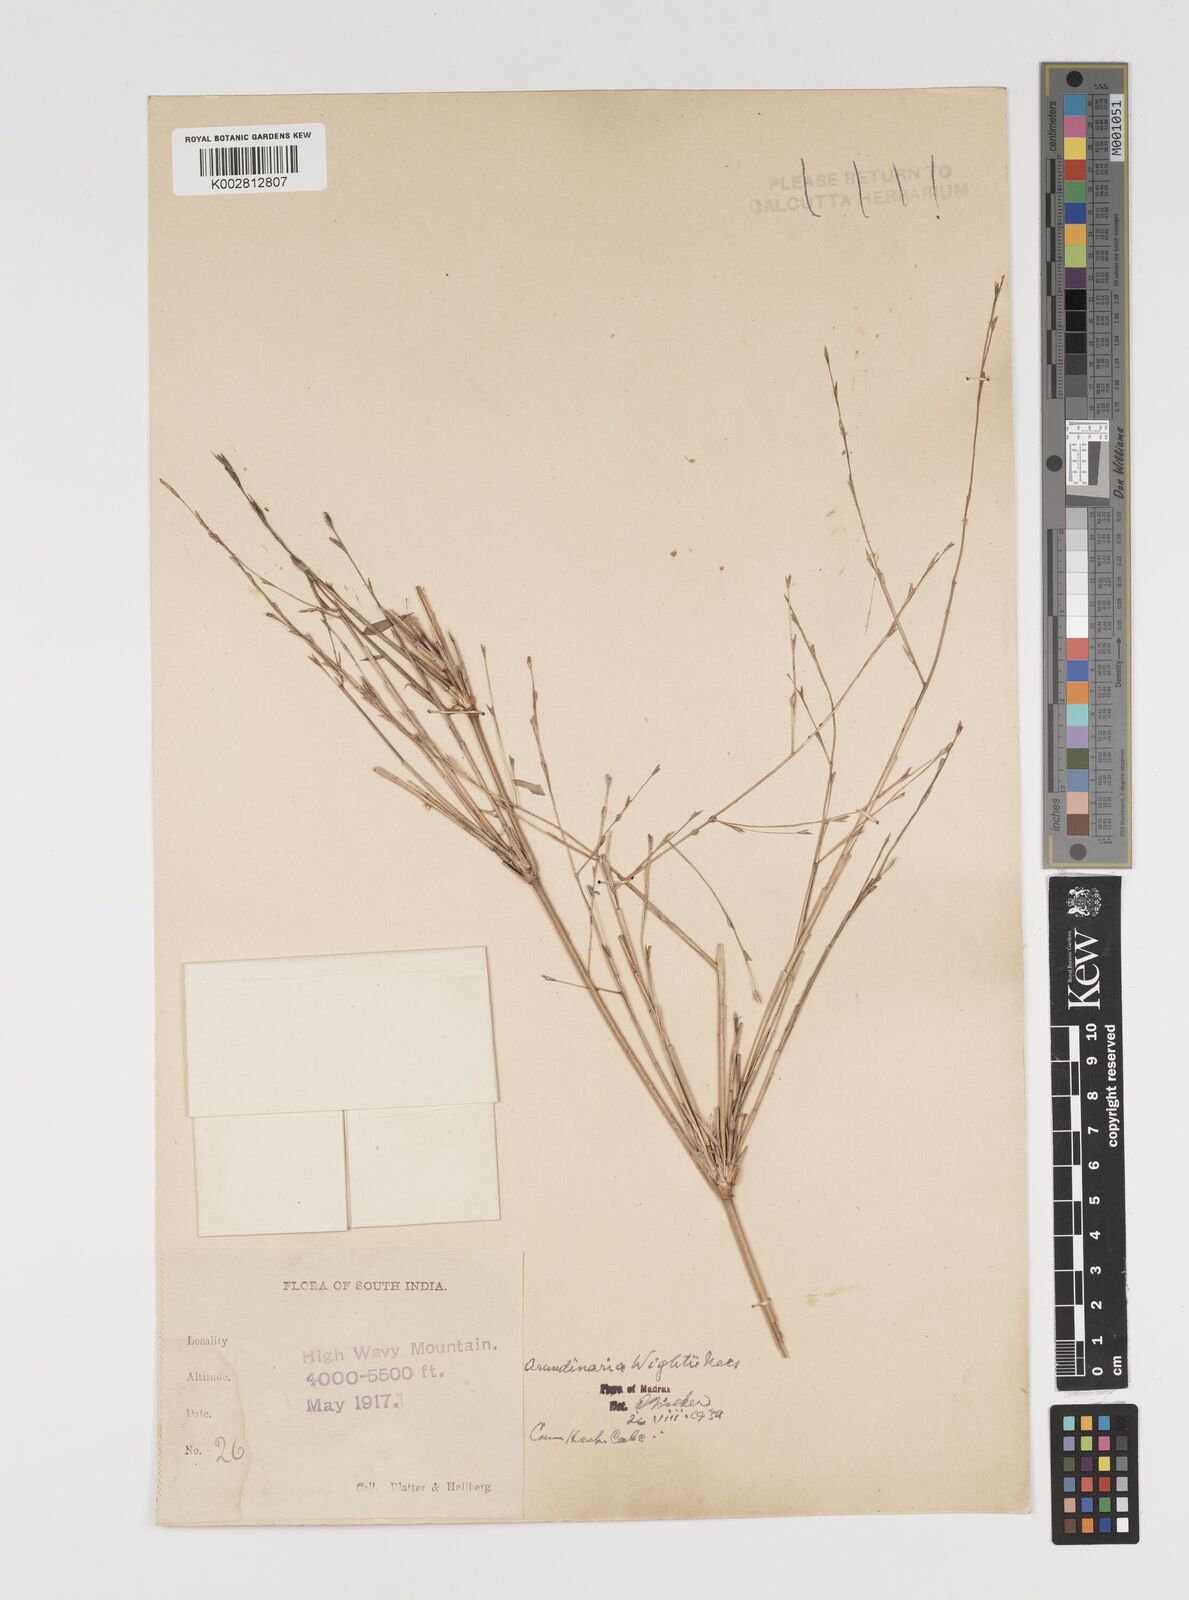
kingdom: Plantae
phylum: Tracheophyta
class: Liliopsida
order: Poales
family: Poaceae
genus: Kuruna
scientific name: Kuruna wightiana
